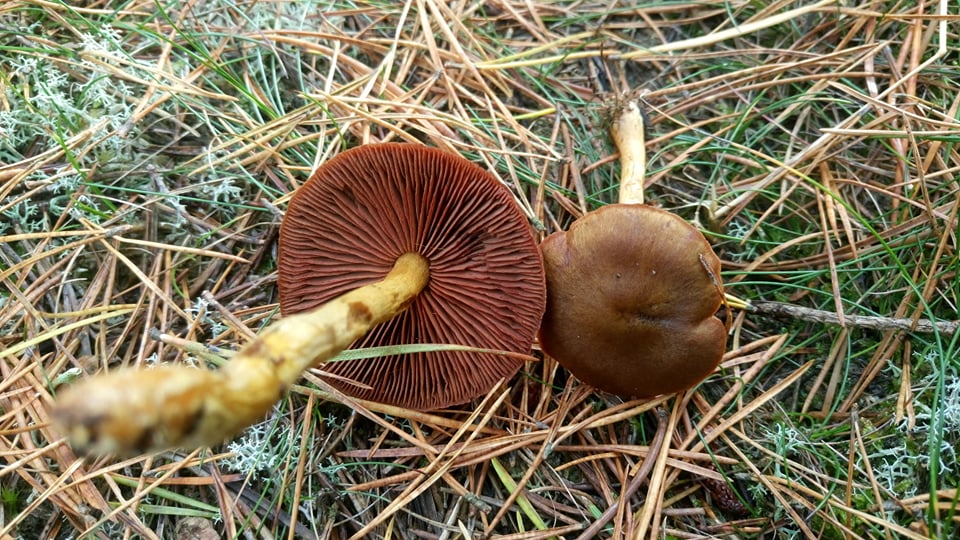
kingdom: Fungi
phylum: Basidiomycota
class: Agaricomycetes
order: Agaricales
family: Cortinariaceae
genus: Cortinarius
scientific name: Cortinarius
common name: cinnoberbladet slørhat
